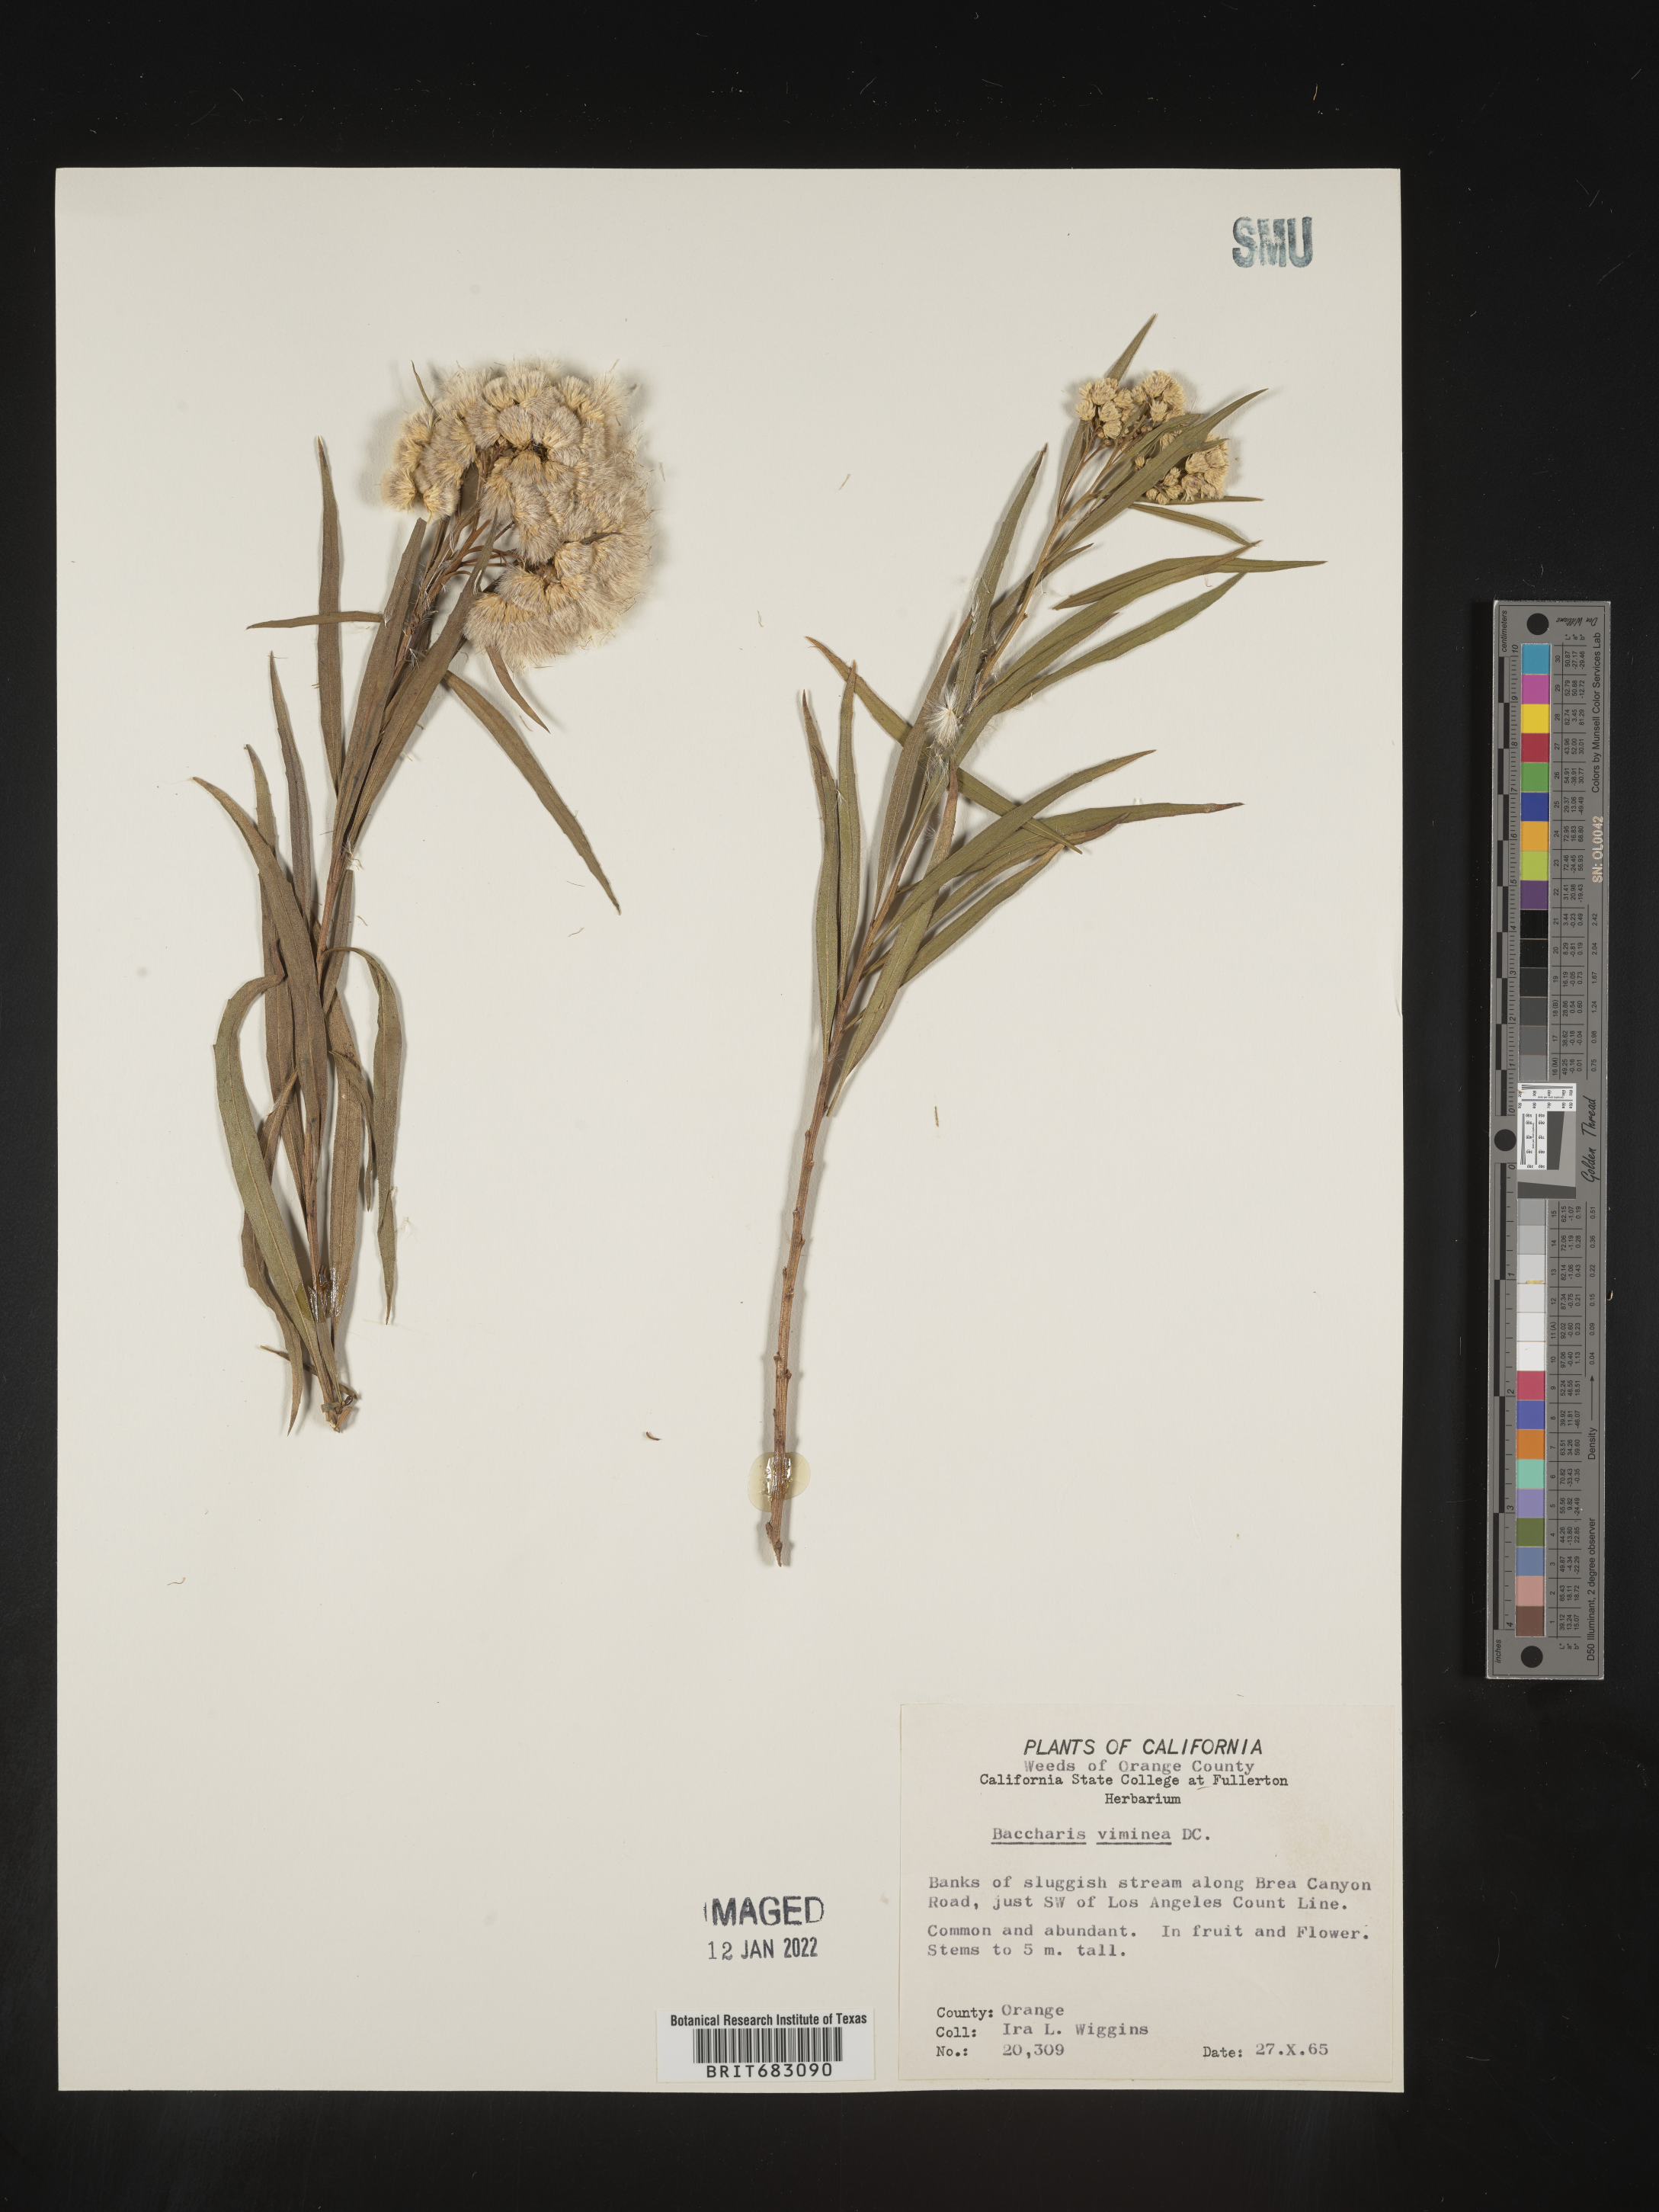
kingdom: Plantae
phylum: Tracheophyta
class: Magnoliopsida
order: Asterales
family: Asteraceae
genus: Baccharis
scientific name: Baccharis salicifolia
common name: Sticky baccharis
